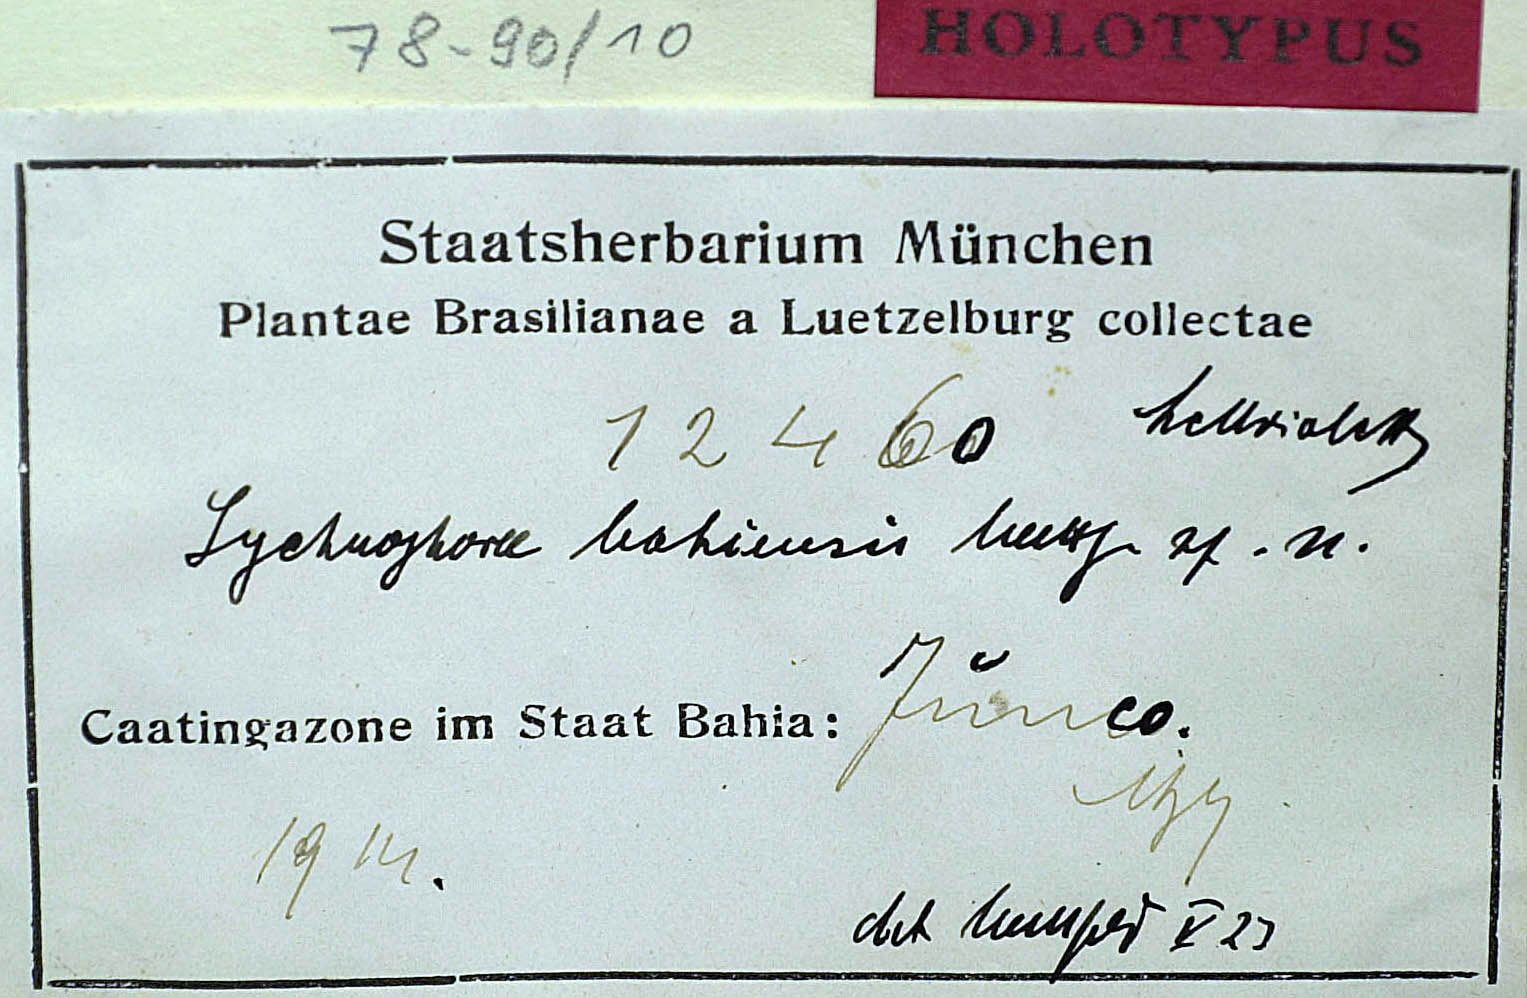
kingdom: Plantae
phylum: Tracheophyta
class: Magnoliopsida
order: Asterales
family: Asteraceae
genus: Lychnophora
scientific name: Lychnophora rosmarinifolia
